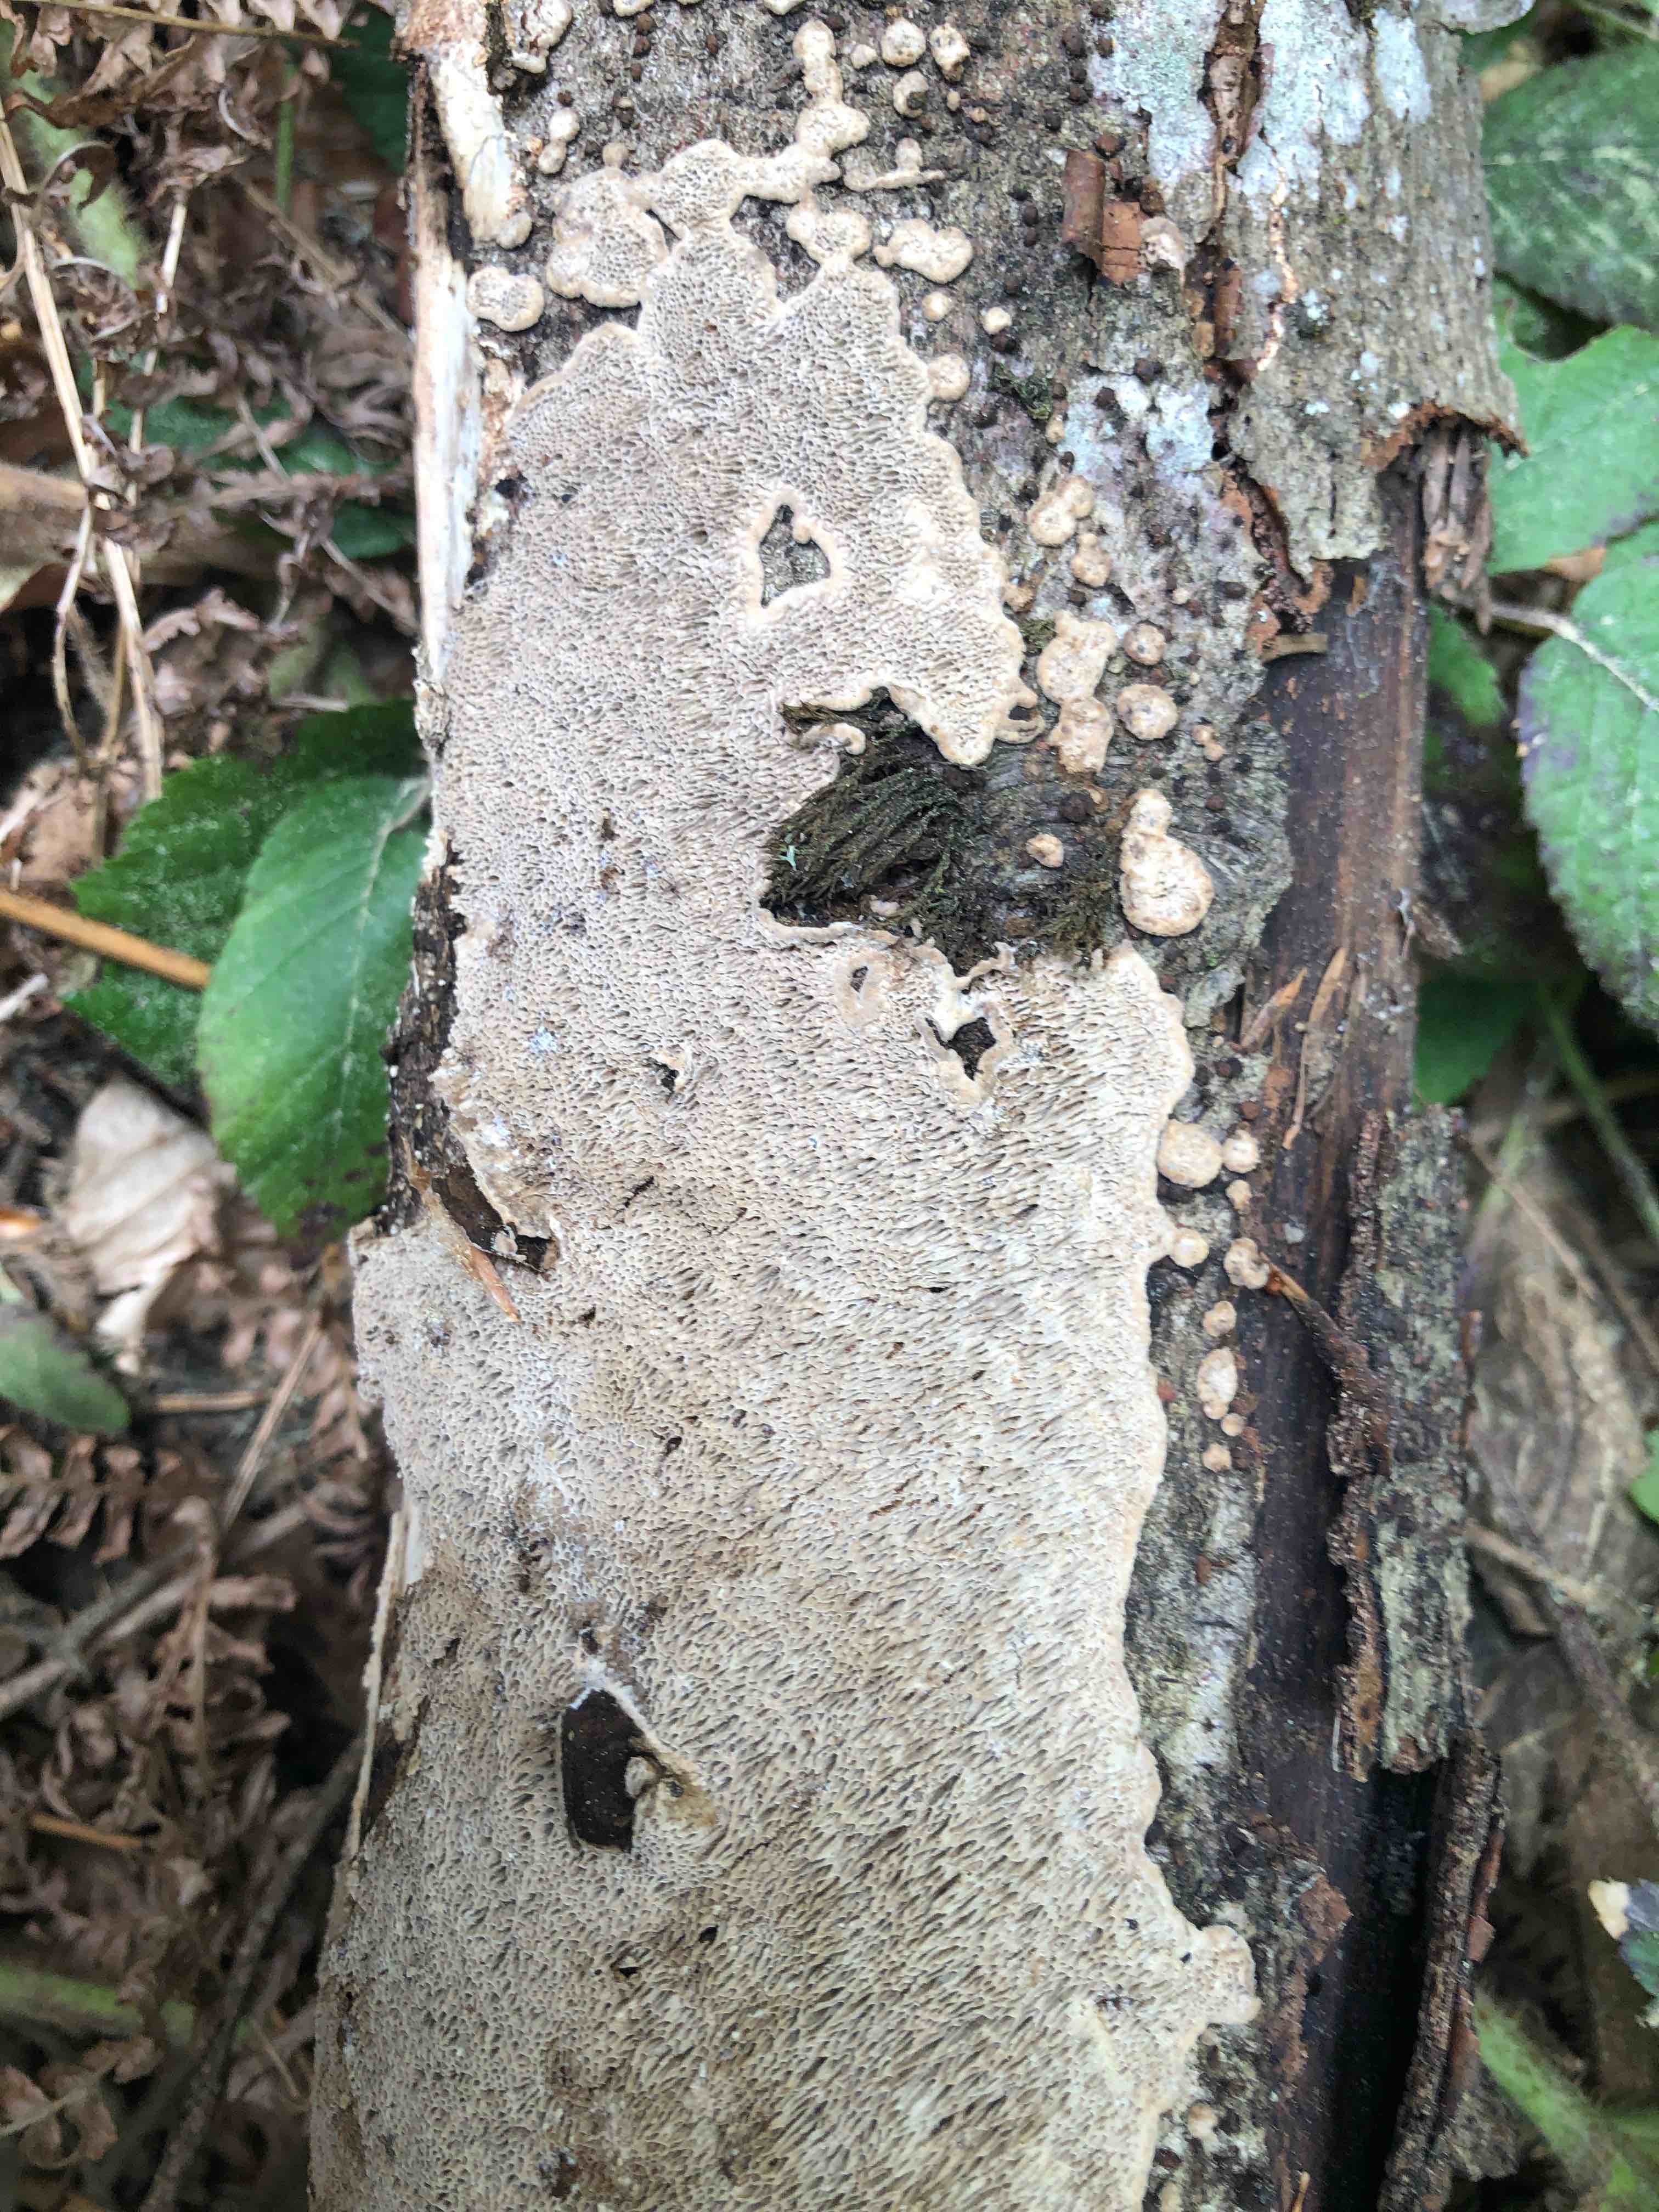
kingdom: Fungi
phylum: Basidiomycota
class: Agaricomycetes
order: Polyporales
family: Polyporaceae
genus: Podofomes
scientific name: Podofomes mollis
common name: blød begporesvamp
